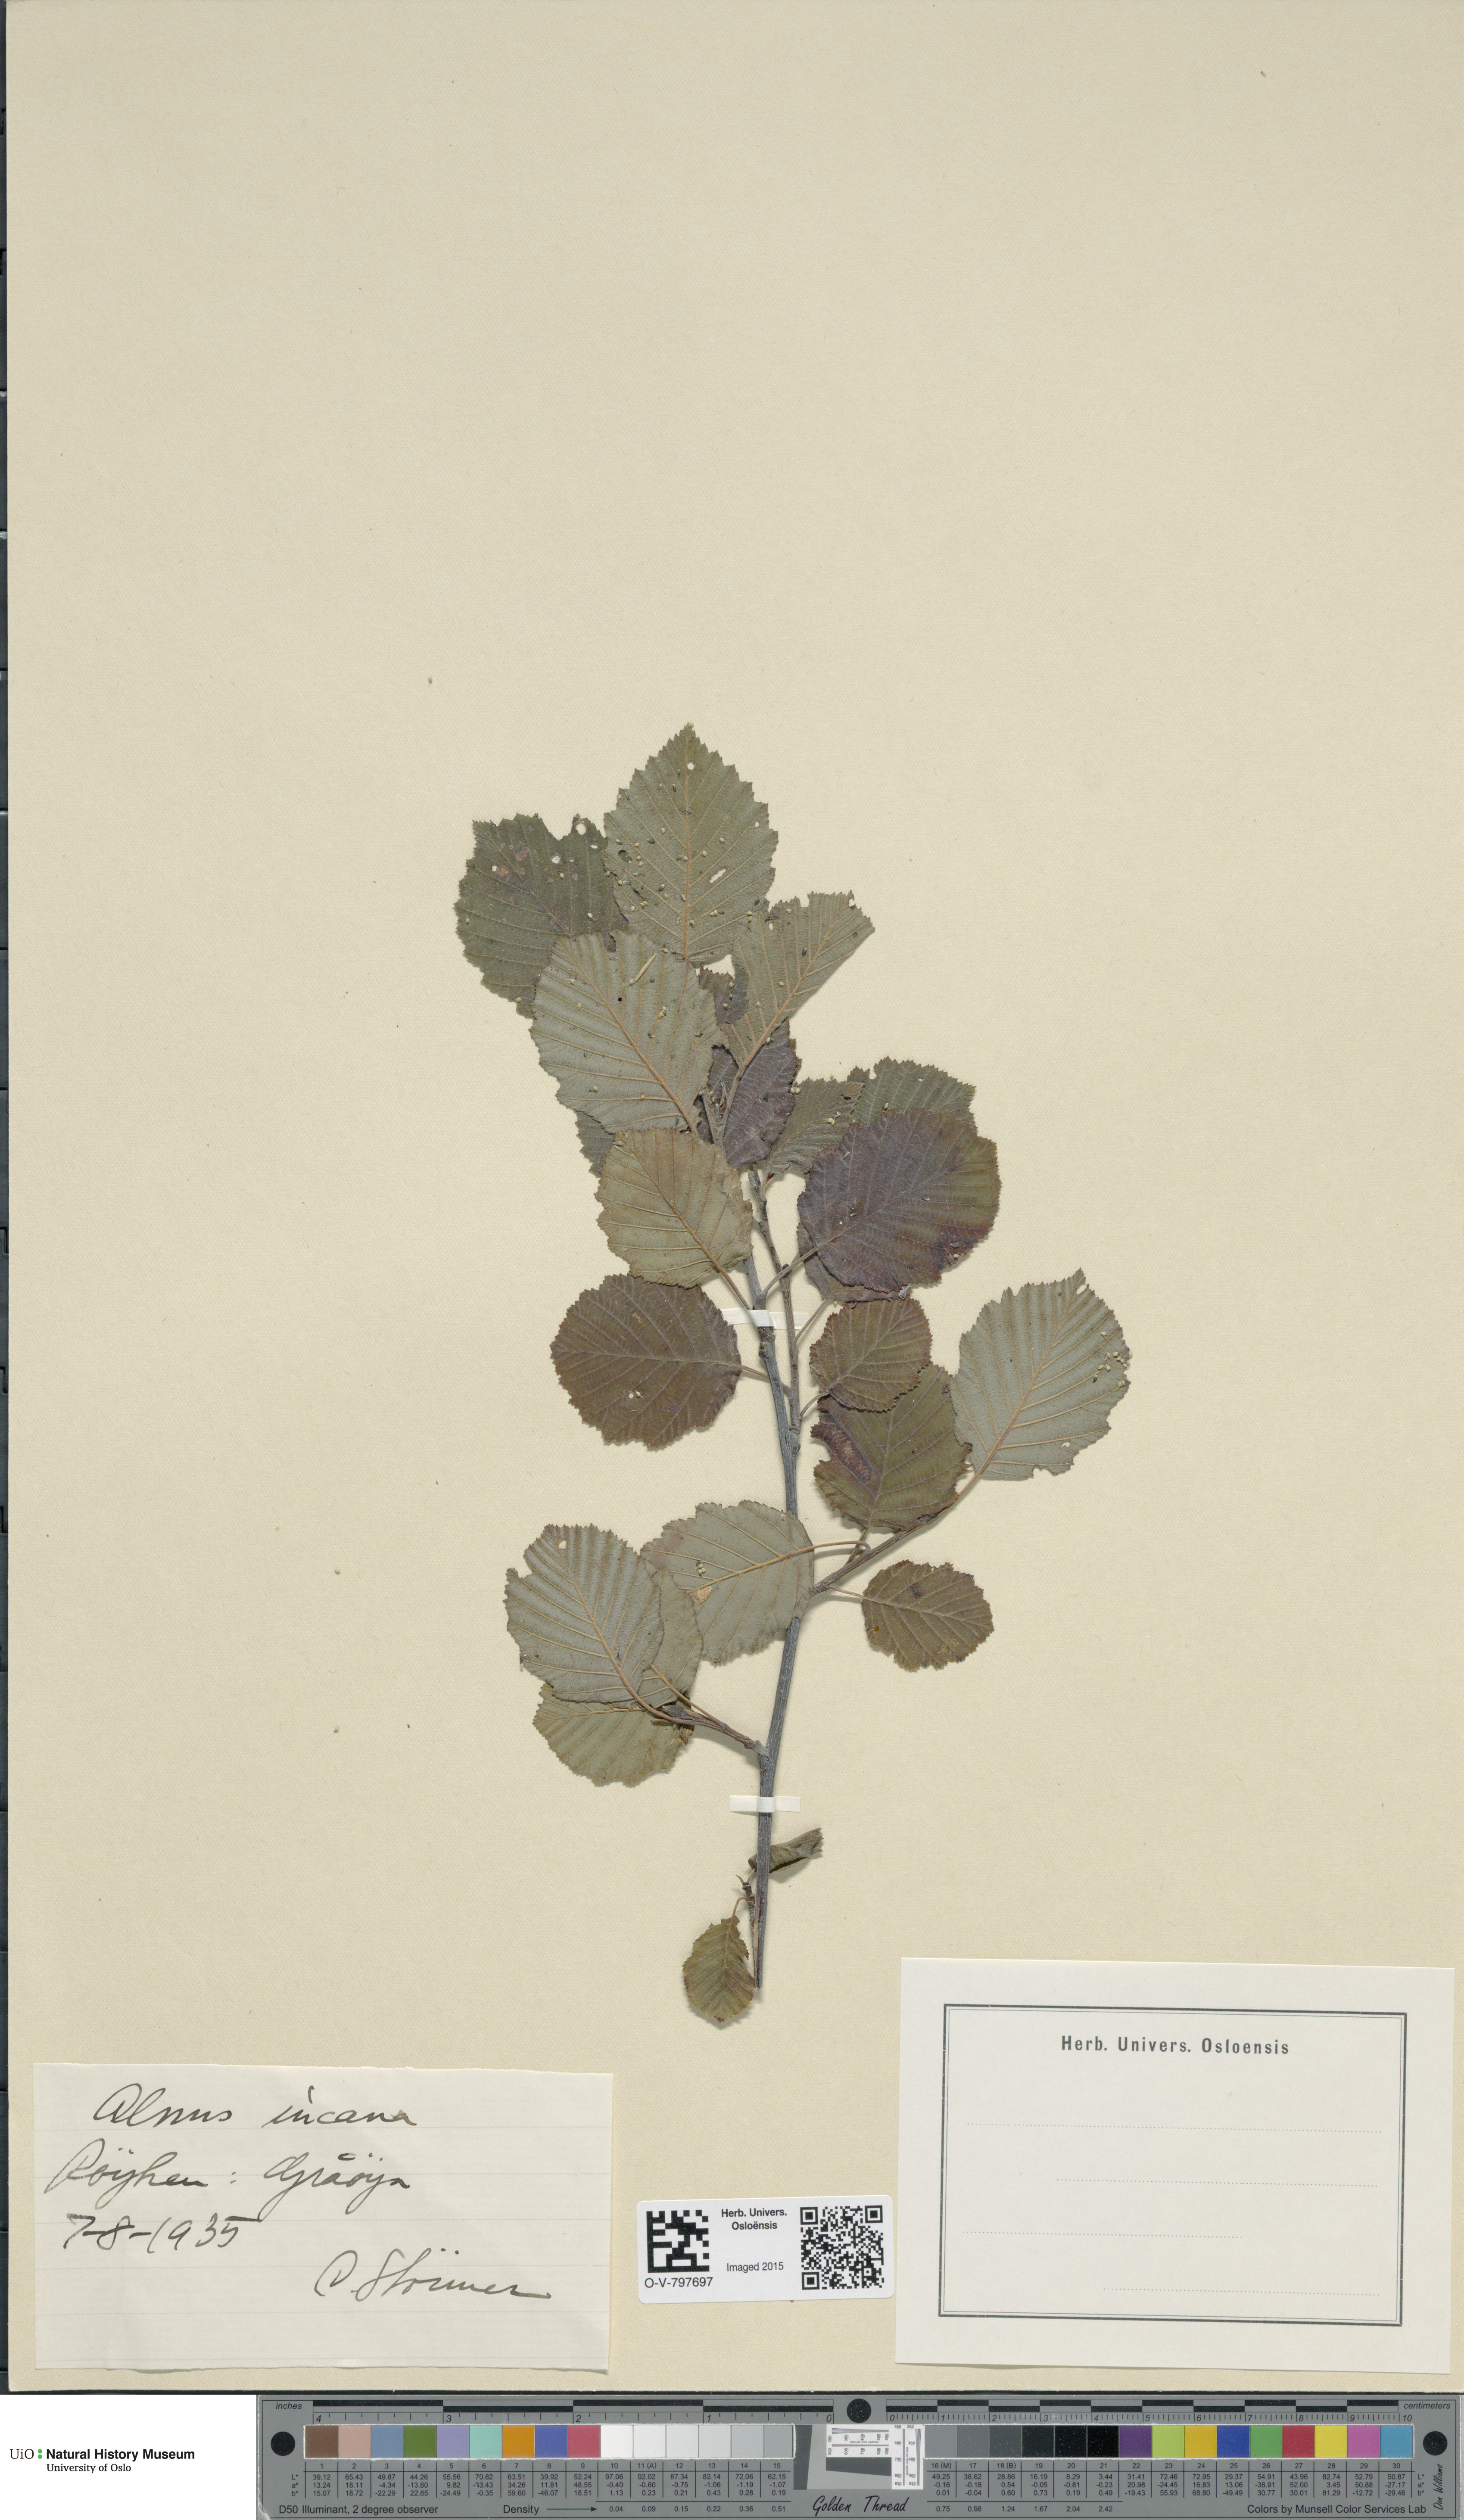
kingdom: Plantae
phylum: Tracheophyta
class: Magnoliopsida
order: Fagales
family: Betulaceae
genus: Alnus
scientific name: Alnus incana
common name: Grey alder
